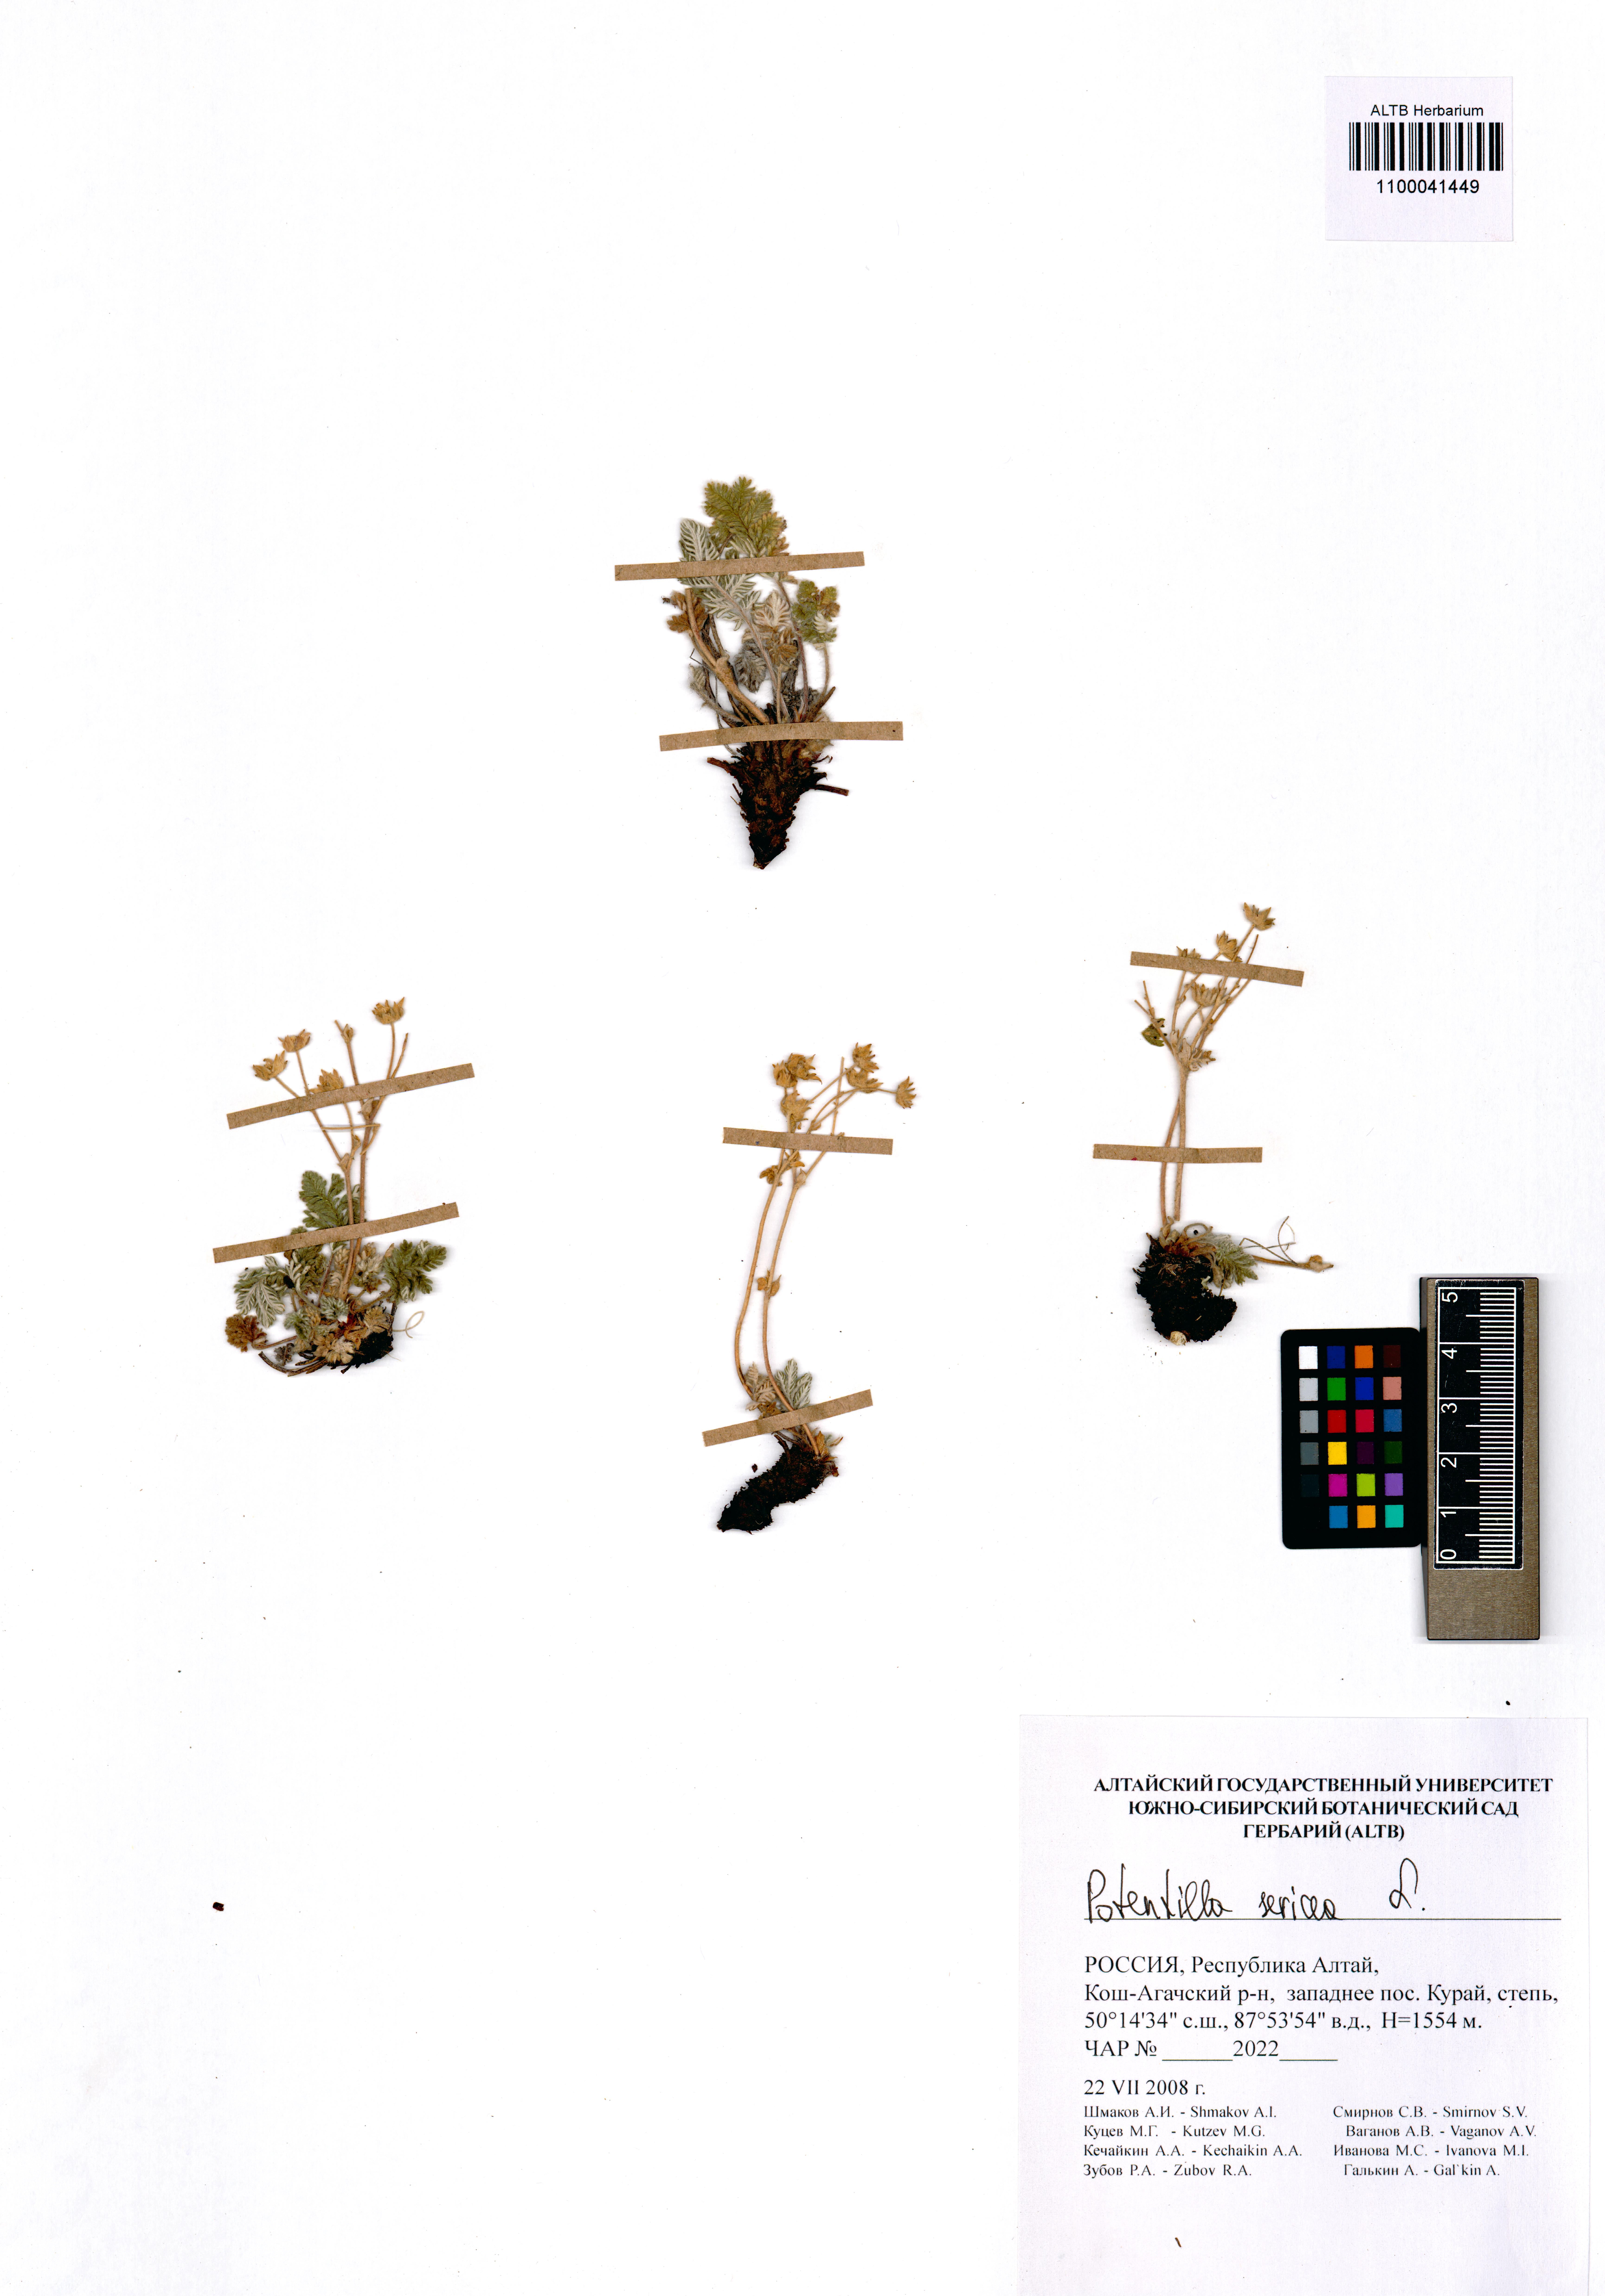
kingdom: Plantae
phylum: Tracheophyta
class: Magnoliopsida
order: Rosales
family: Rosaceae
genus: Potentilla
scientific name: Potentilla sericea
